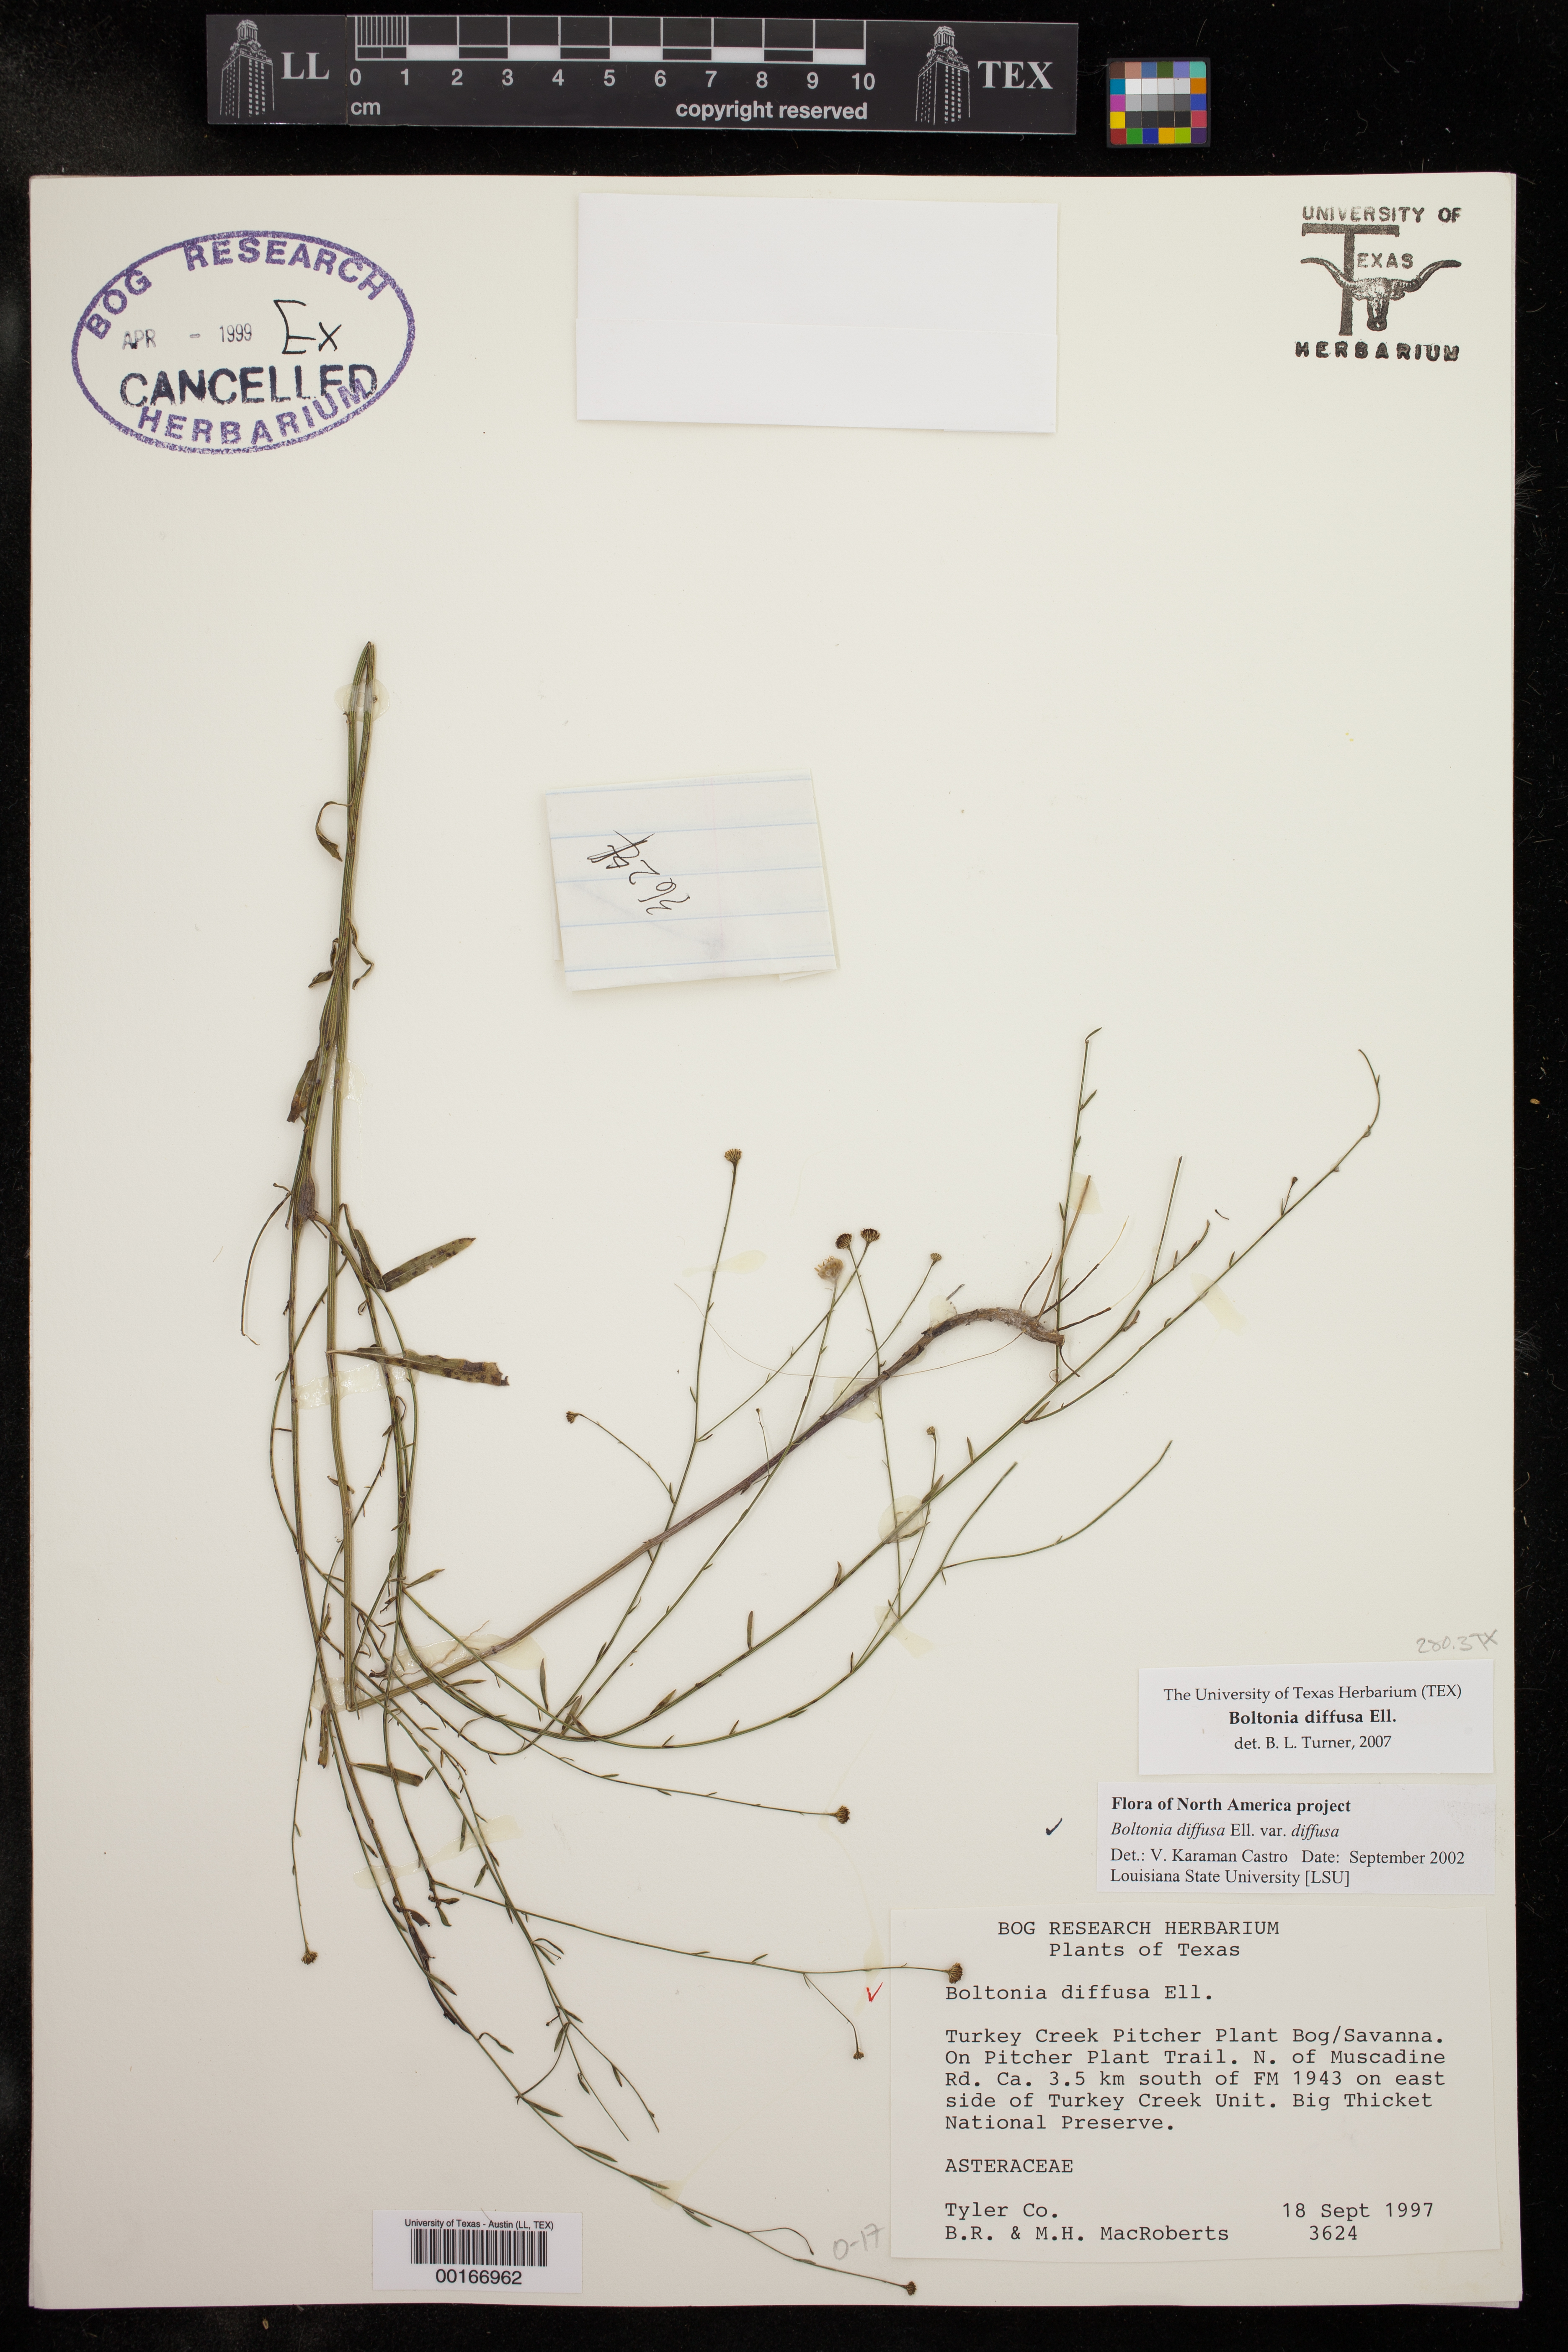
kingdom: Plantae
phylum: Tracheophyta
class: Magnoliopsida
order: Asterales
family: Asteraceae
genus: Boltonia
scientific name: Boltonia diffusa
